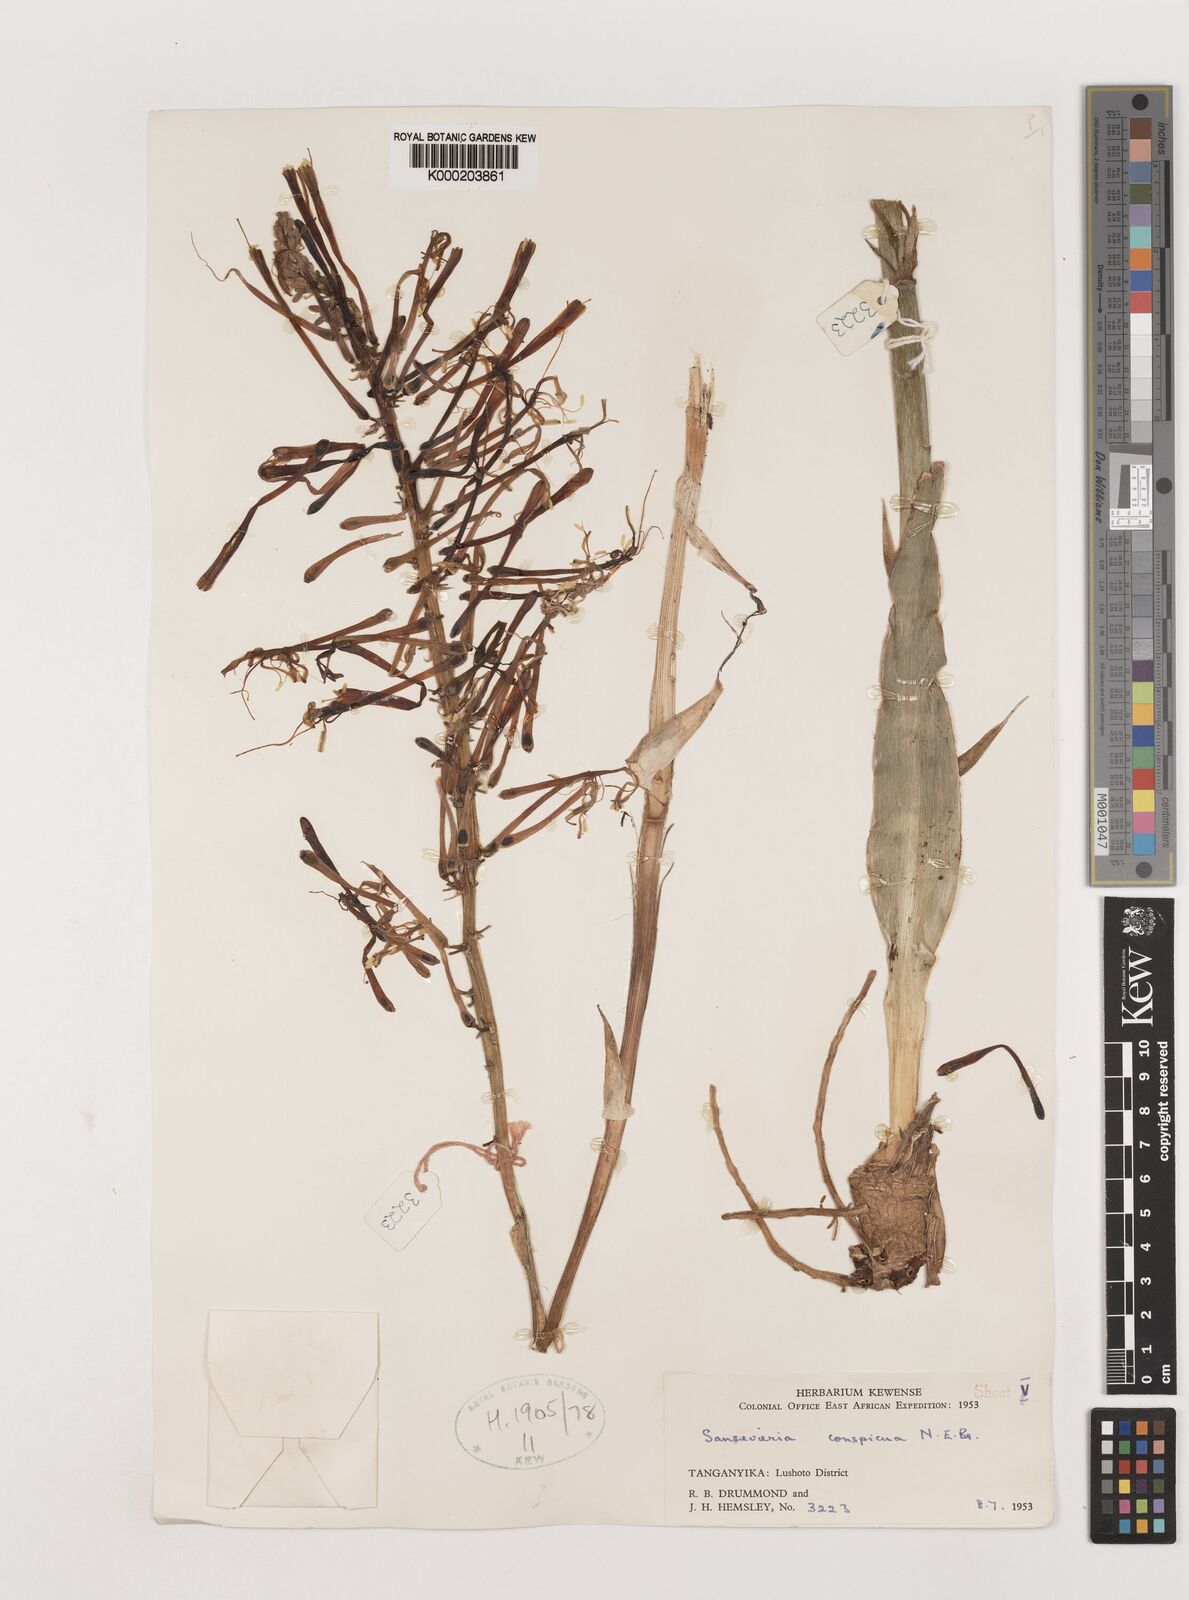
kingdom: Plantae
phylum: Tracheophyta
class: Liliopsida
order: Asparagales
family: Asparagaceae
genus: Dracaena
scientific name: Dracaena conspicua
